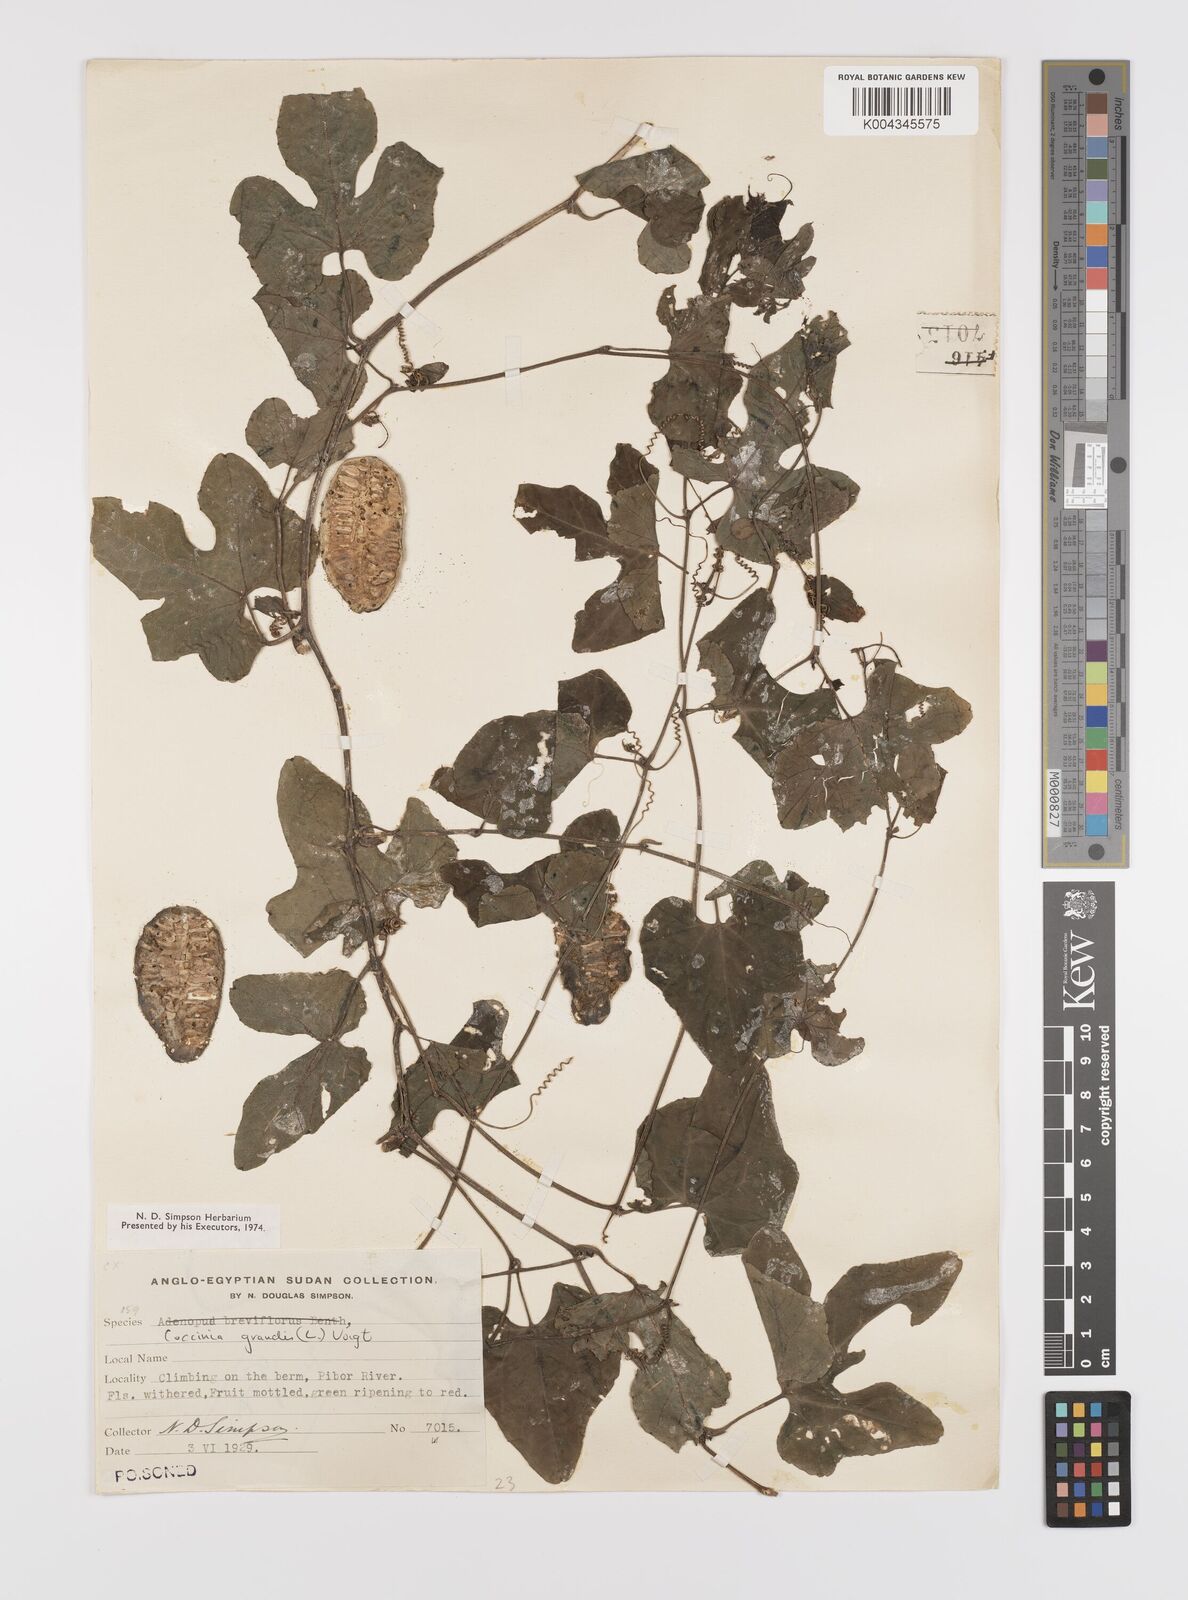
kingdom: Plantae
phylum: Tracheophyta
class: Magnoliopsida
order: Cucurbitales
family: Cucurbitaceae
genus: Coccinia
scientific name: Coccinia grandis
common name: Ivy gourd
